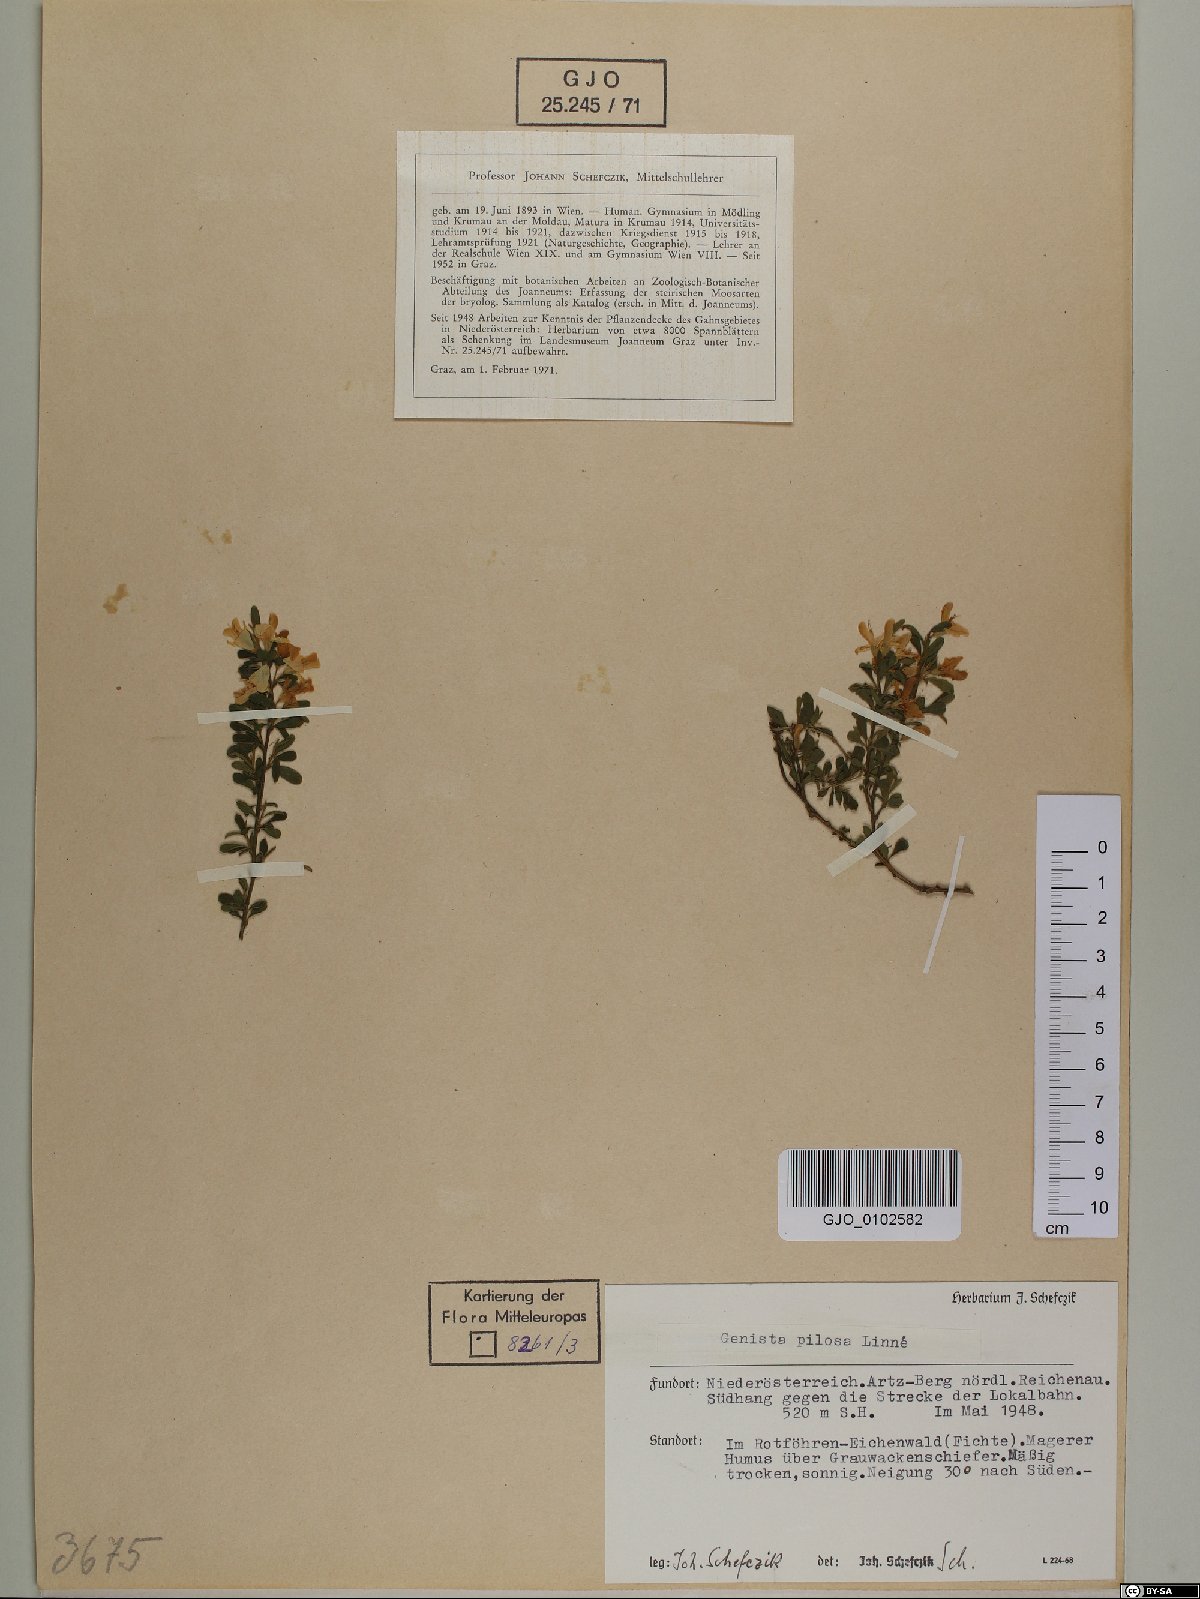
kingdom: Plantae
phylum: Tracheophyta
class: Magnoliopsida
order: Fabales
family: Fabaceae
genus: Genista
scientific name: Genista pilosa
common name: Hairy greenweed
